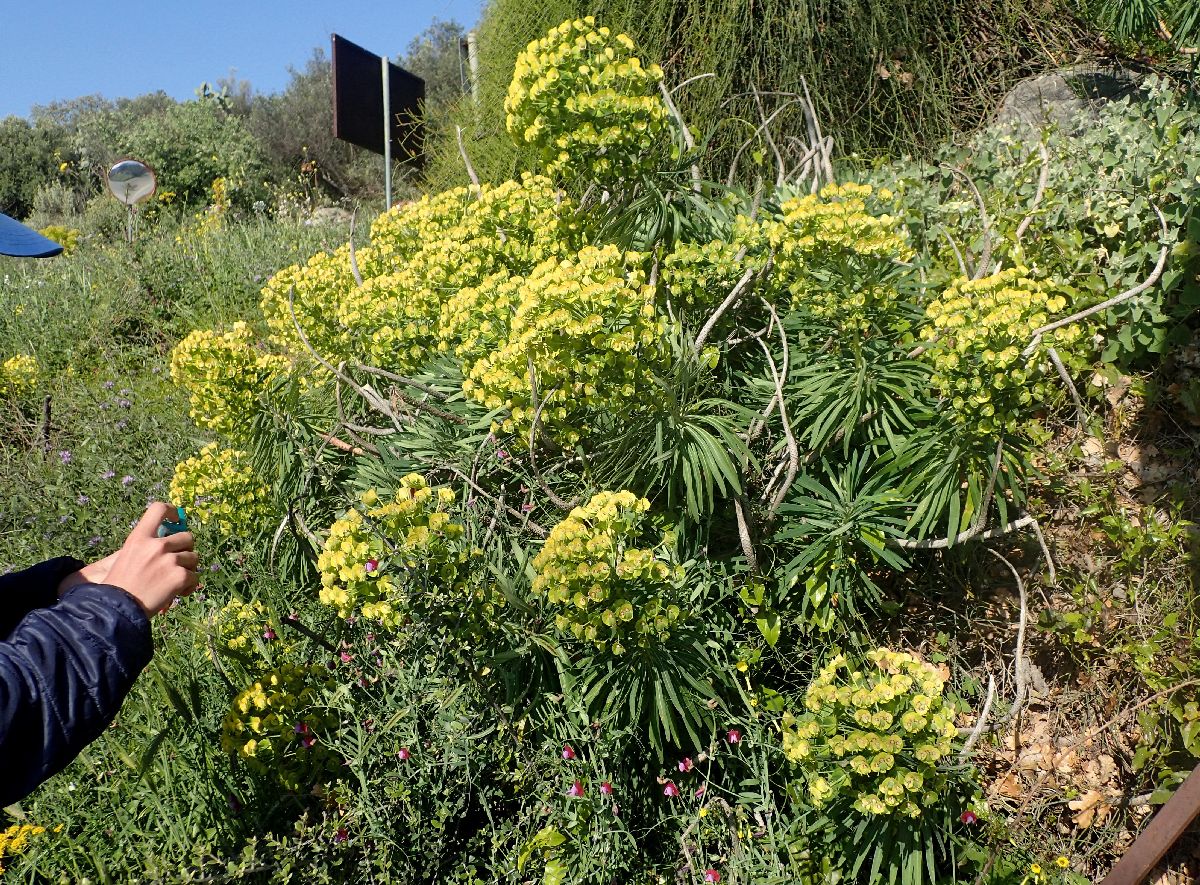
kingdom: Plantae
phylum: Tracheophyta
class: Magnoliopsida
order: Malpighiales
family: Euphorbiaceae
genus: Euphorbia
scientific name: Euphorbia characias
